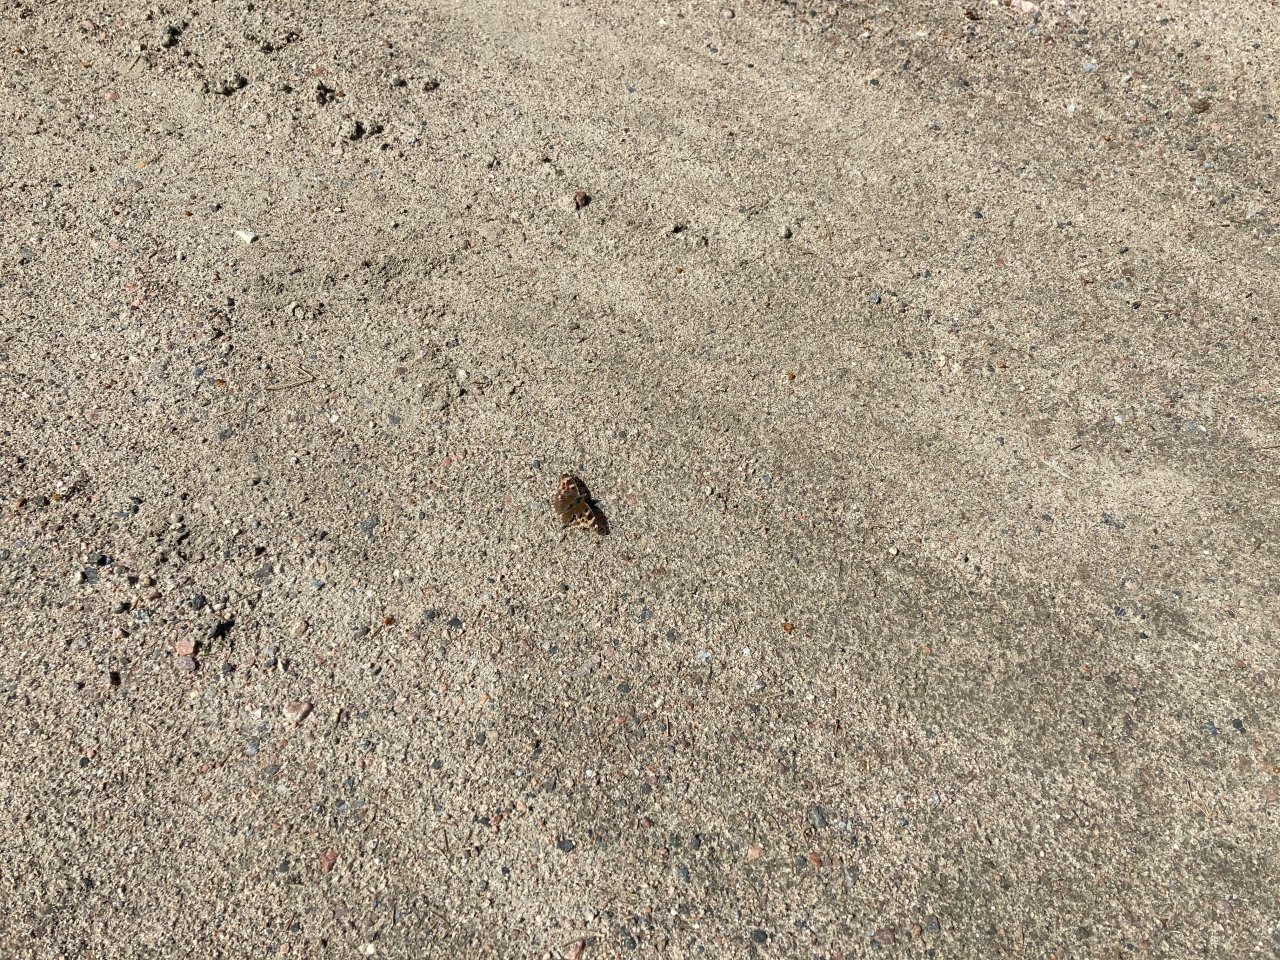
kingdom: Animalia
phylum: Arthropoda
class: Insecta
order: Lepidoptera
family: Nymphalidae
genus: Polygonia
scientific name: Polygonia vaualbum
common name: Compton Tortoiseshell
